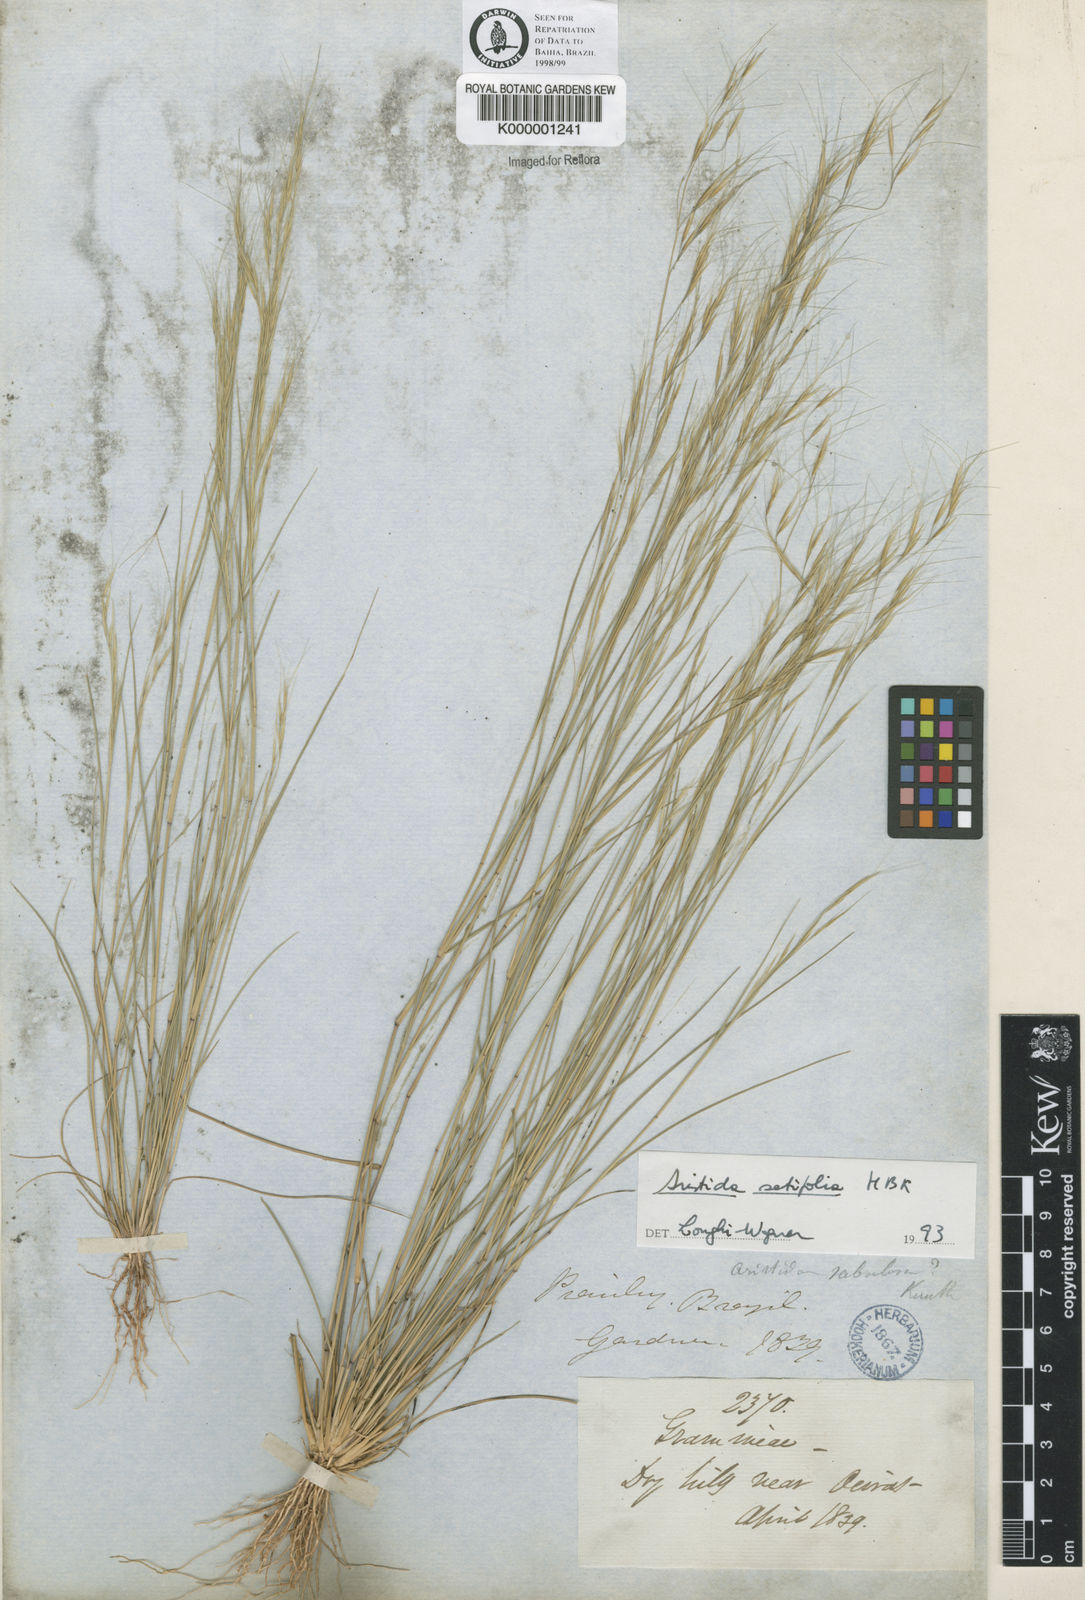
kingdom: Plantae
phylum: Tracheophyta
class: Liliopsida
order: Poales
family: Poaceae
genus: Aristida
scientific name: Aristida setifolia
